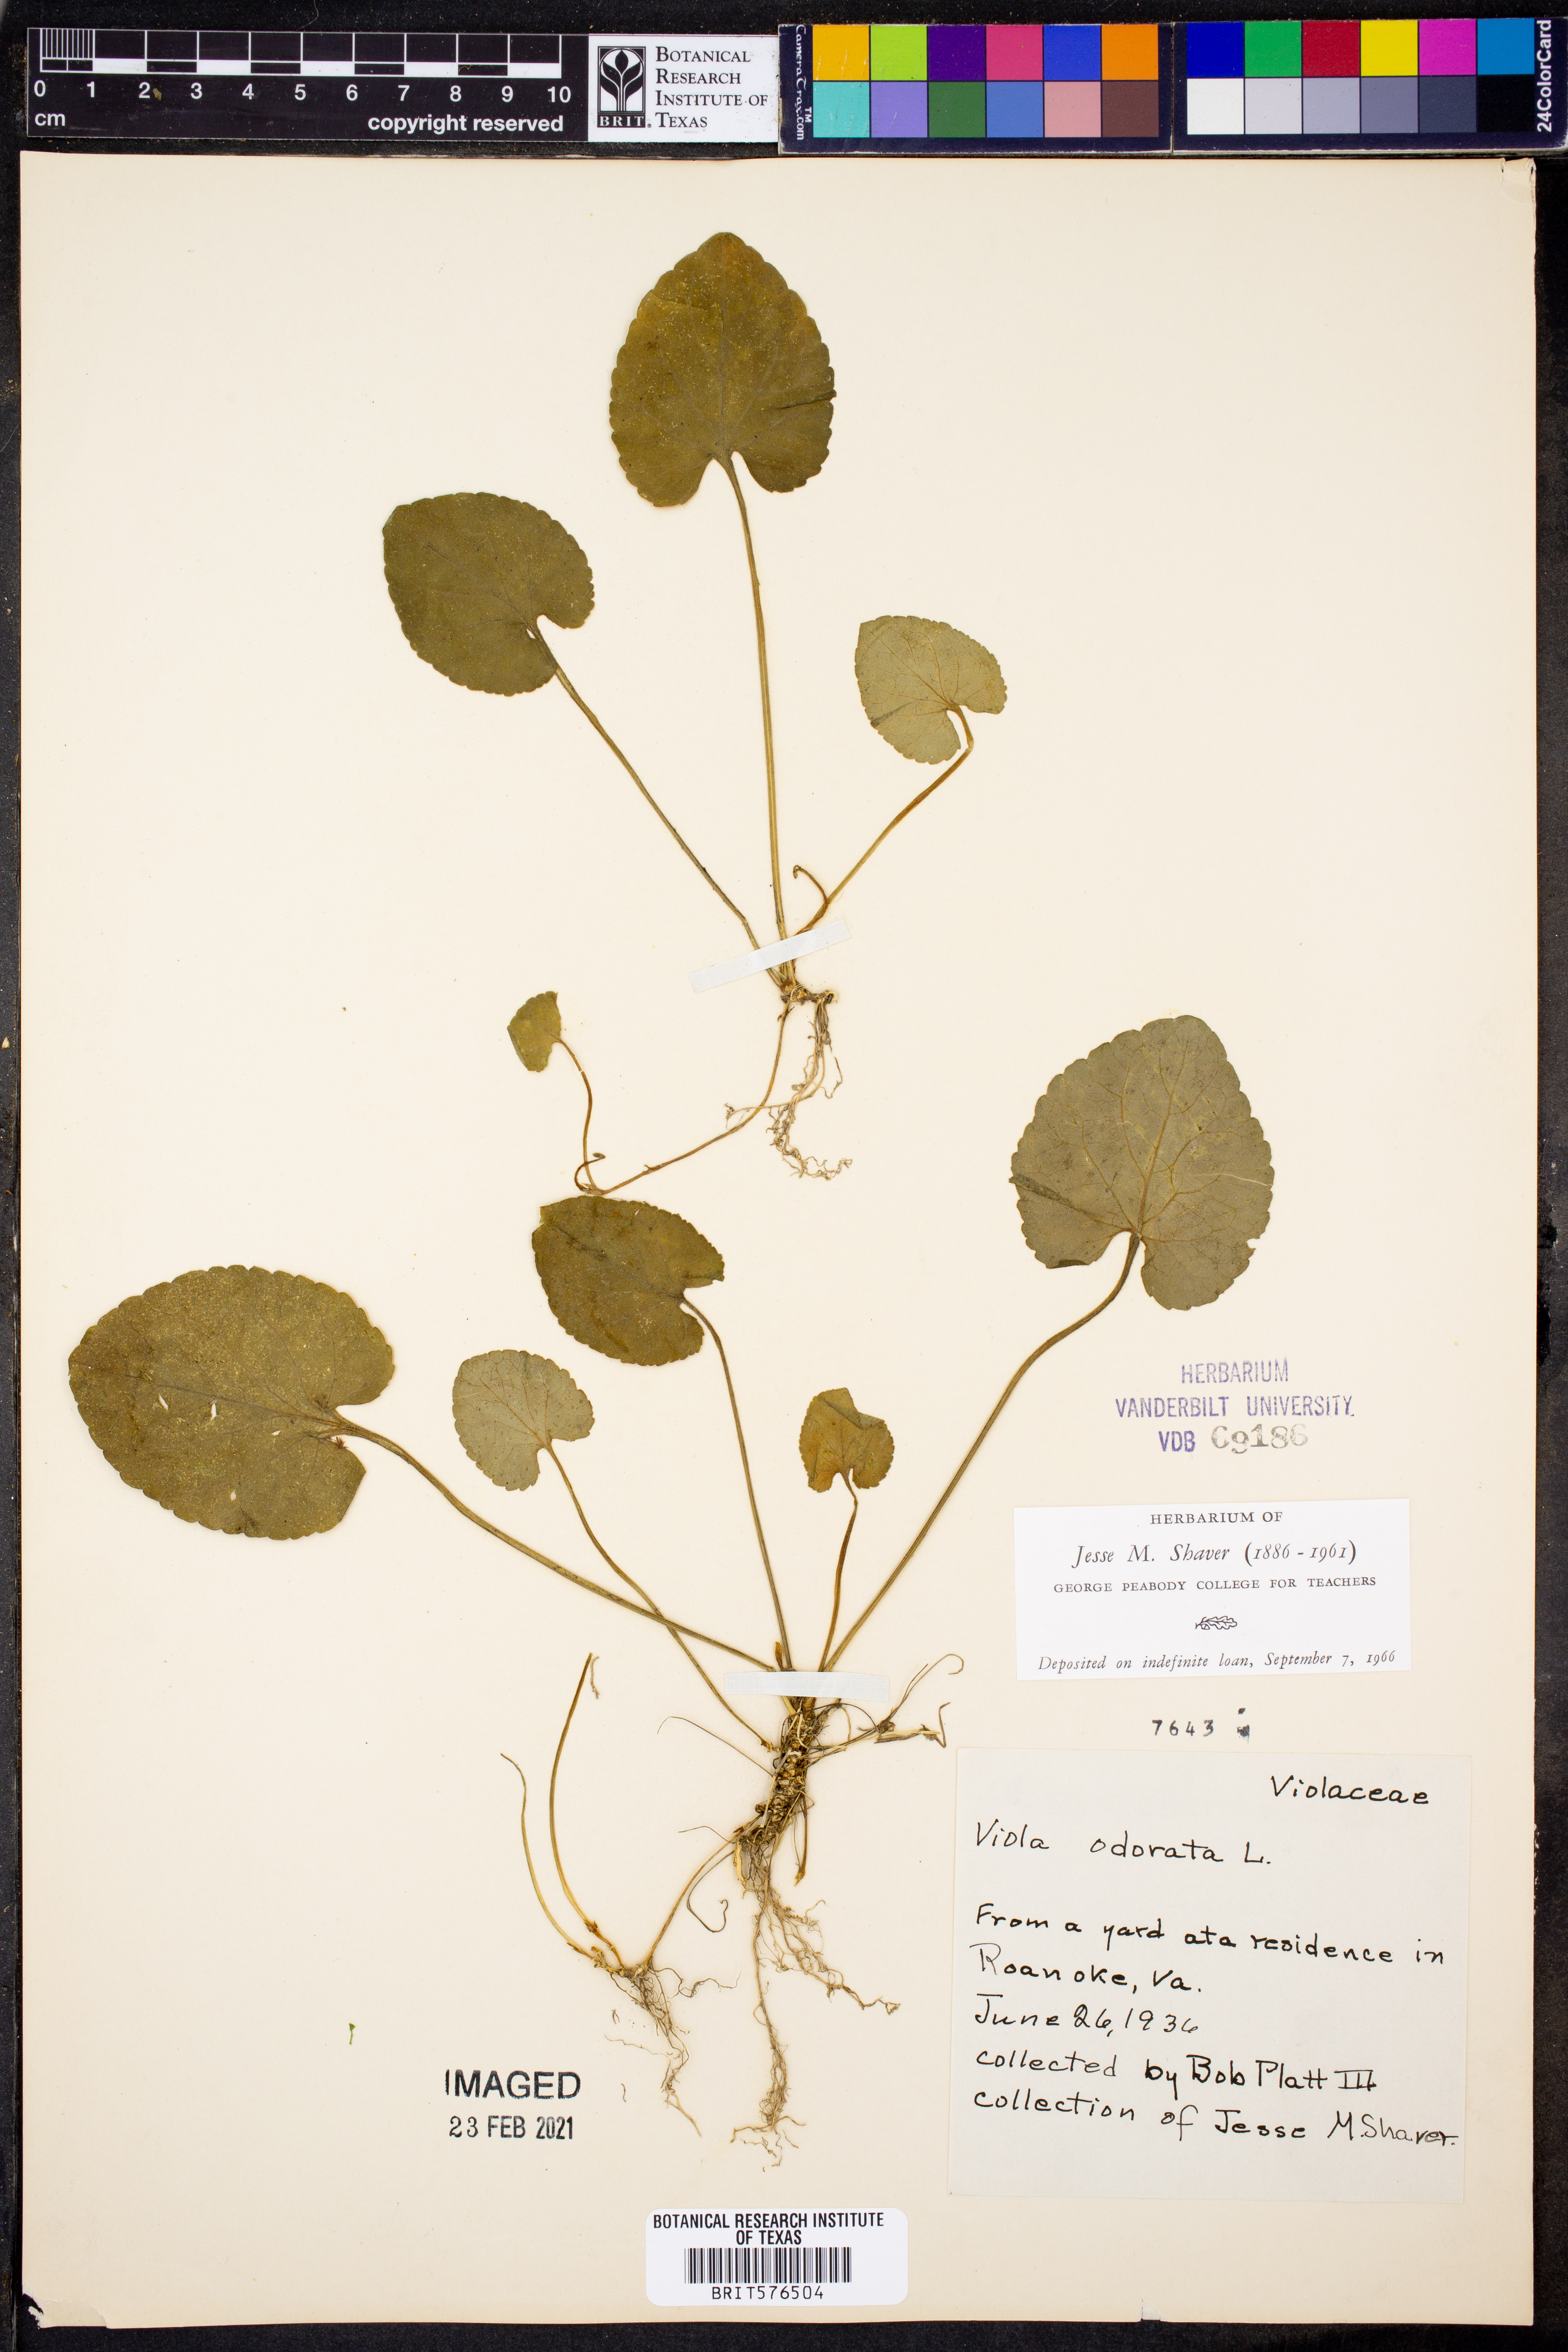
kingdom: Plantae
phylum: Tracheophyta
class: Magnoliopsida
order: Malpighiales
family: Violaceae
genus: Viola
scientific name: Viola odorata
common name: Sweet violet
